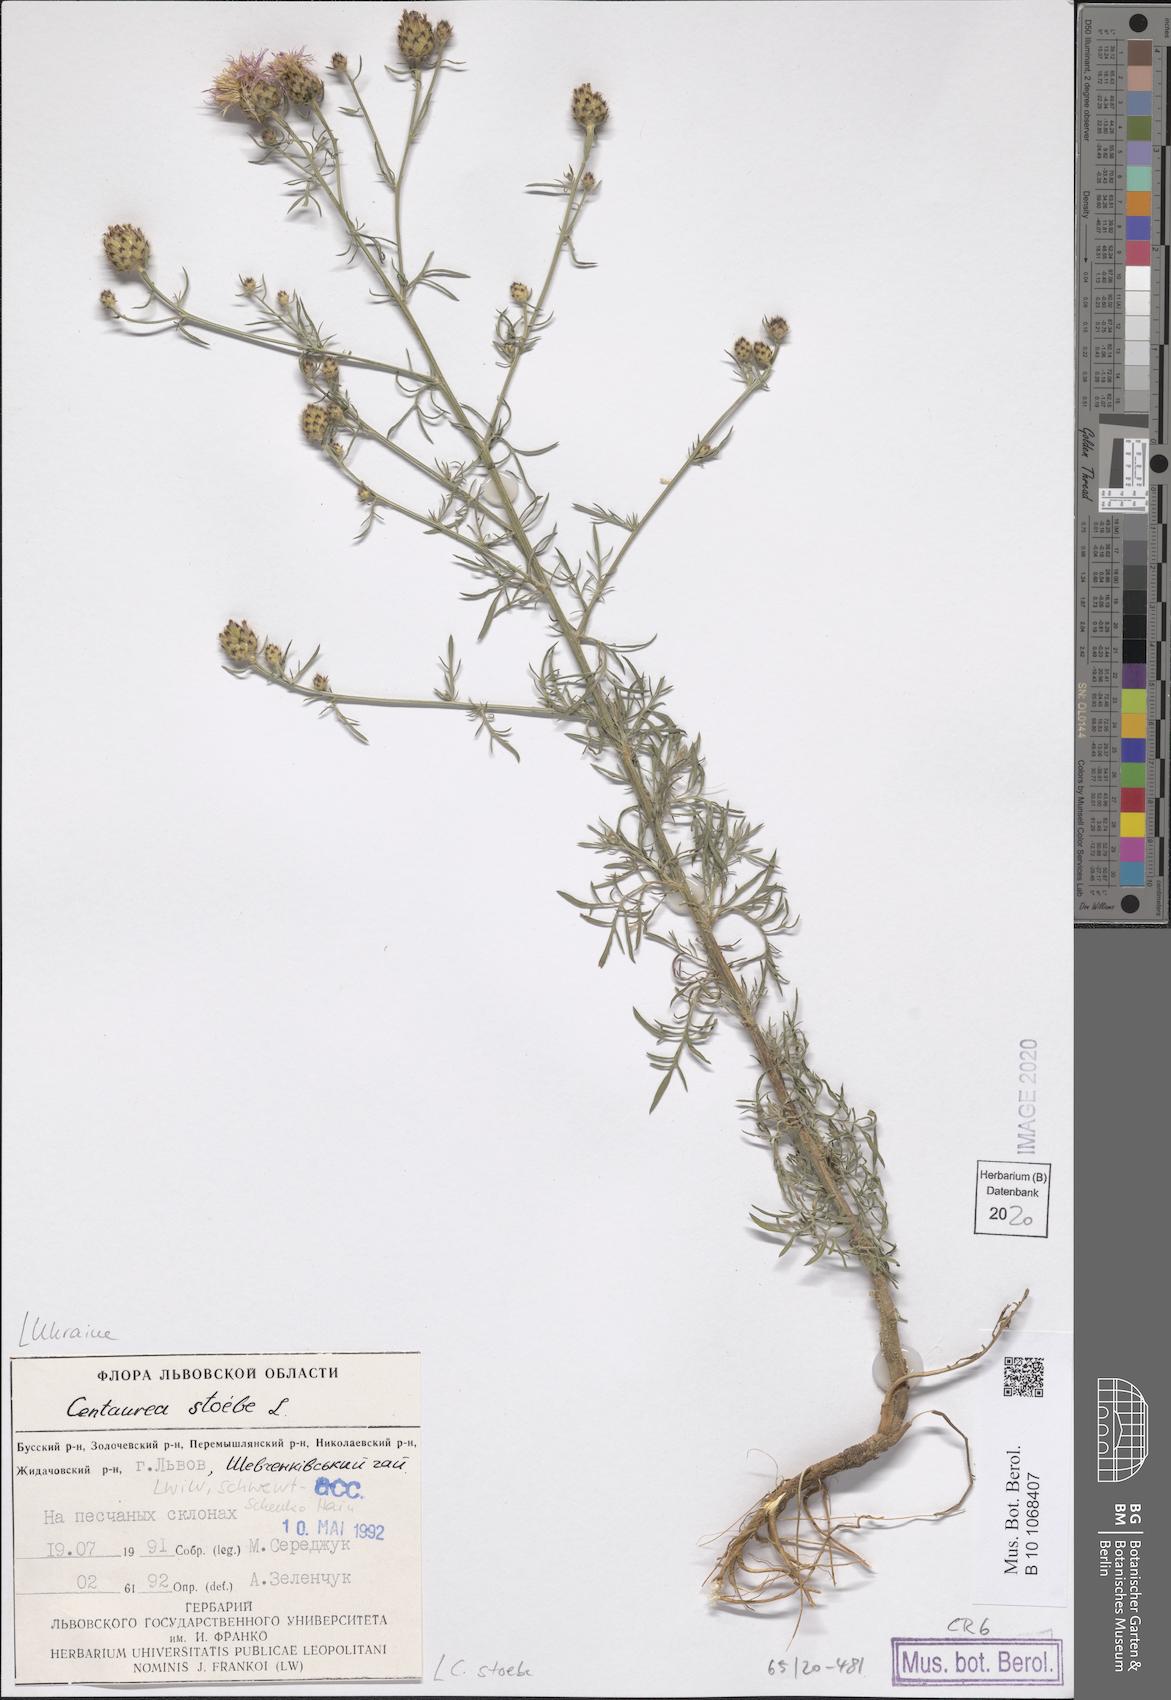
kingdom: Plantae
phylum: Tracheophyta
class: Magnoliopsida
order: Asterales
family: Asteraceae
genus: Centaurea
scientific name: Centaurea stoebe
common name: Spotted knapweed
